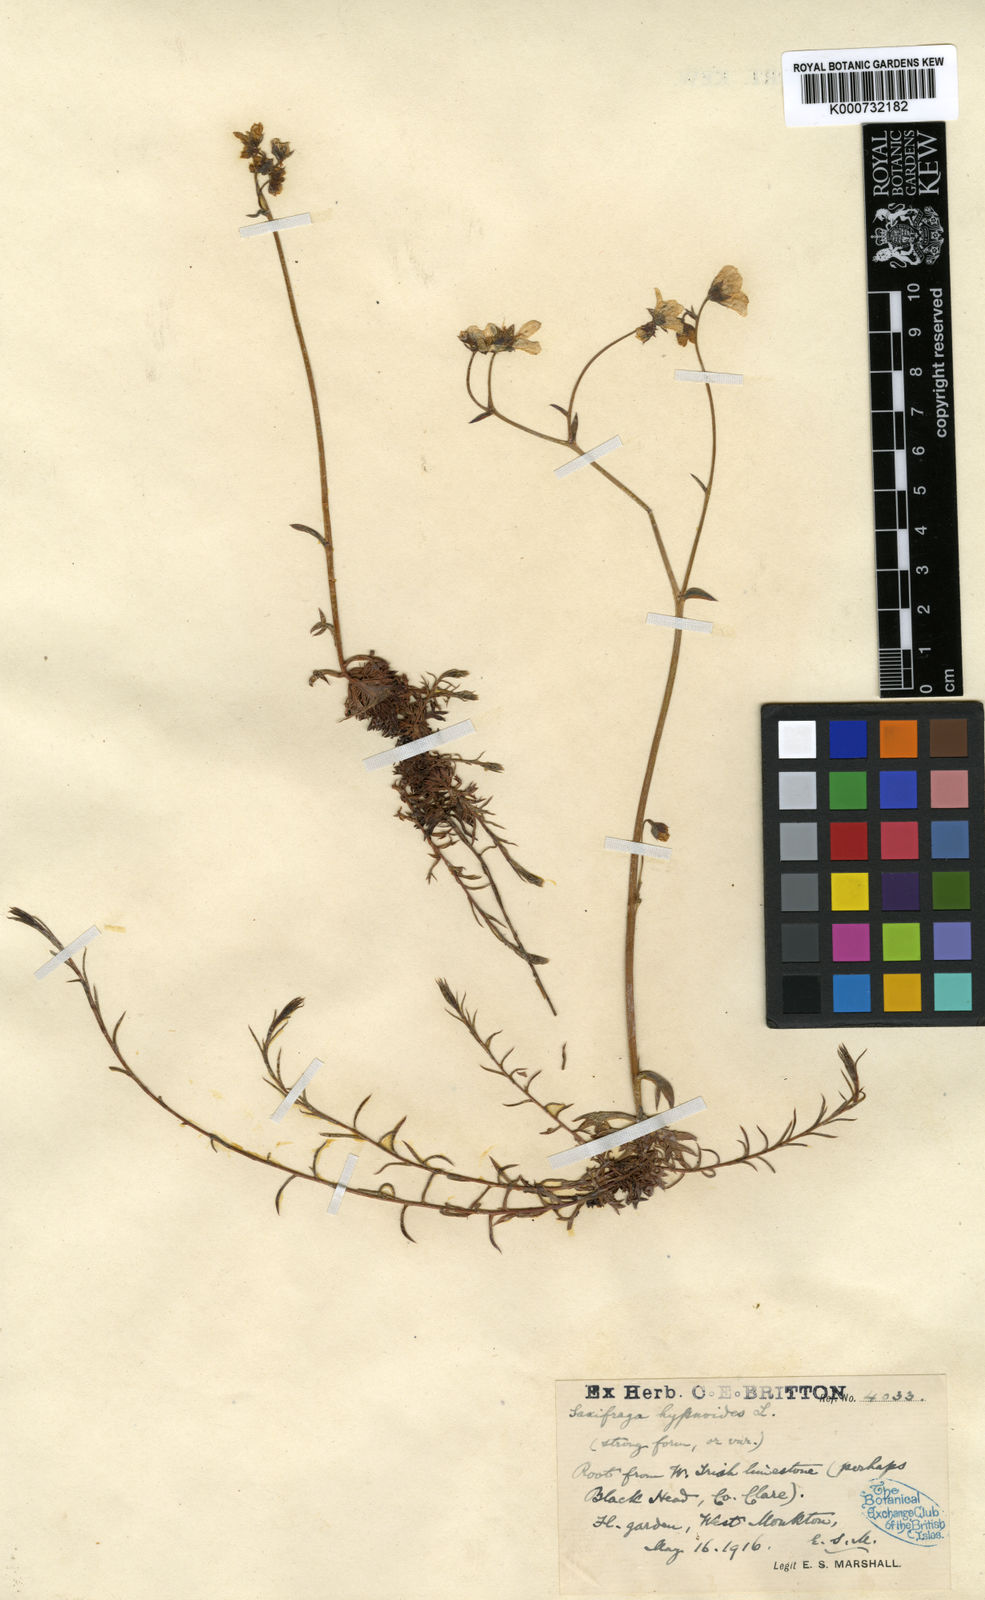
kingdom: Plantae
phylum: Tracheophyta
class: Magnoliopsida
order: Saxifragales
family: Saxifragaceae
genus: Saxifraga
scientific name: Saxifraga hypnoides
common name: Mossy saxifrage
